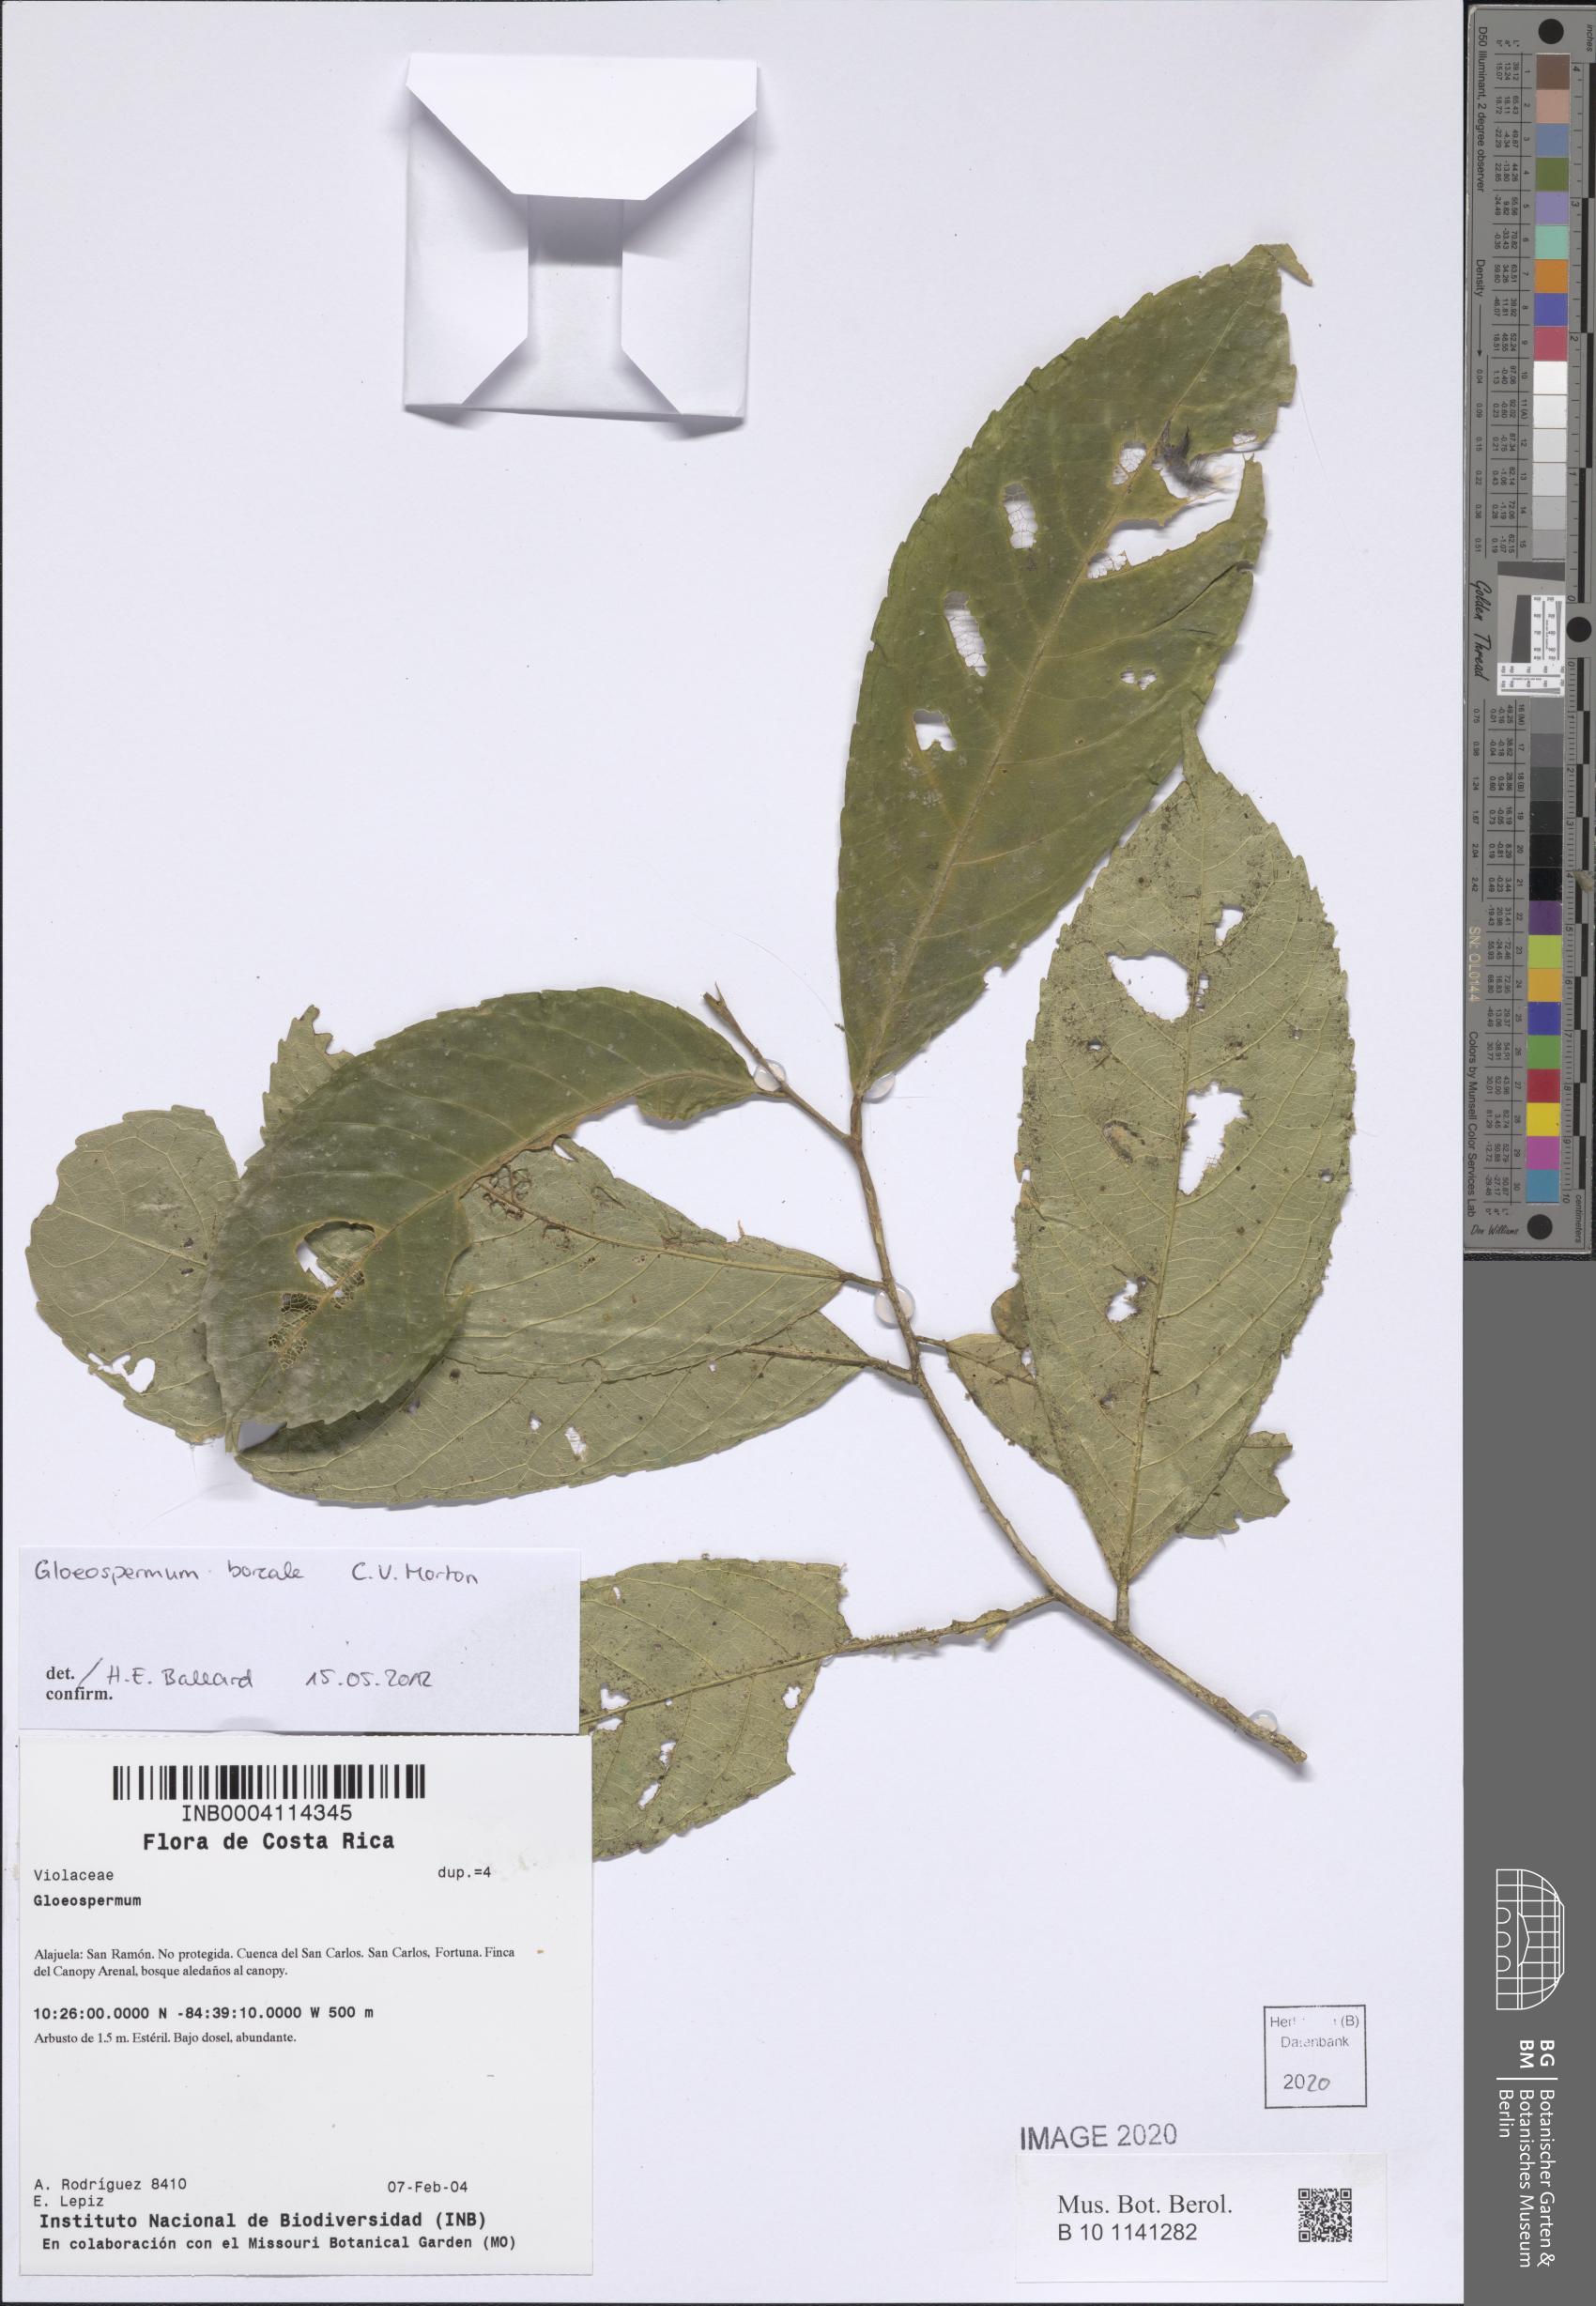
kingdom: Plantae
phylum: Tracheophyta
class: Magnoliopsida
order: Malpighiales
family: Violaceae
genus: Gloeospermum
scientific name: Gloeospermum boreale
